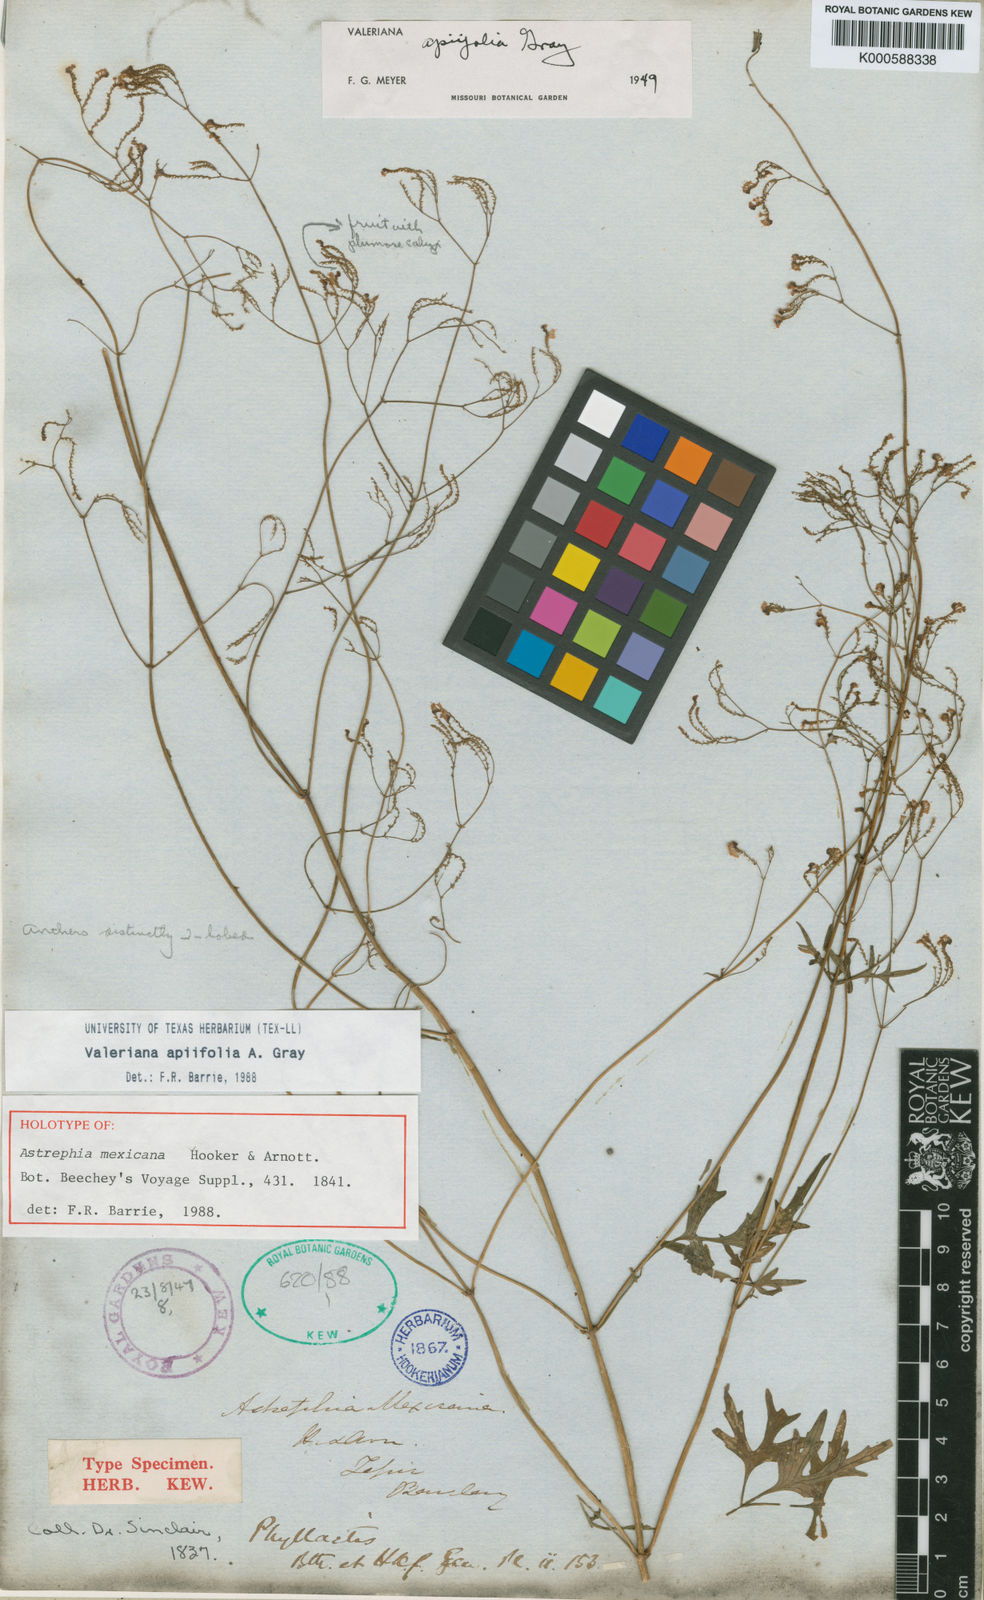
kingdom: Plantae
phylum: Tracheophyta
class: Magnoliopsida
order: Dipsacales
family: Caprifoliaceae
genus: Valeriana
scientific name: Valeriana
